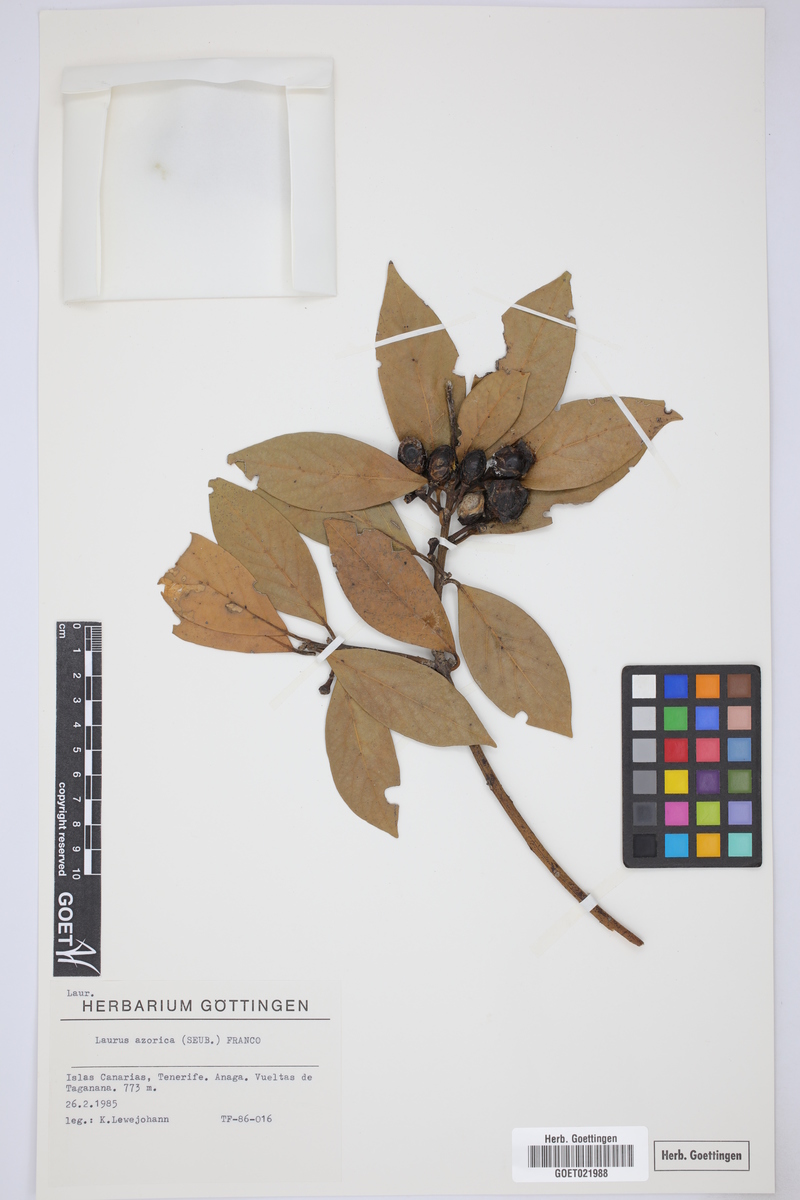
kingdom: Plantae
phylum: Tracheophyta
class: Magnoliopsida
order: Laurales
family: Lauraceae
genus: Laurus
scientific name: Laurus azorica
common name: Macaronesian laurel
